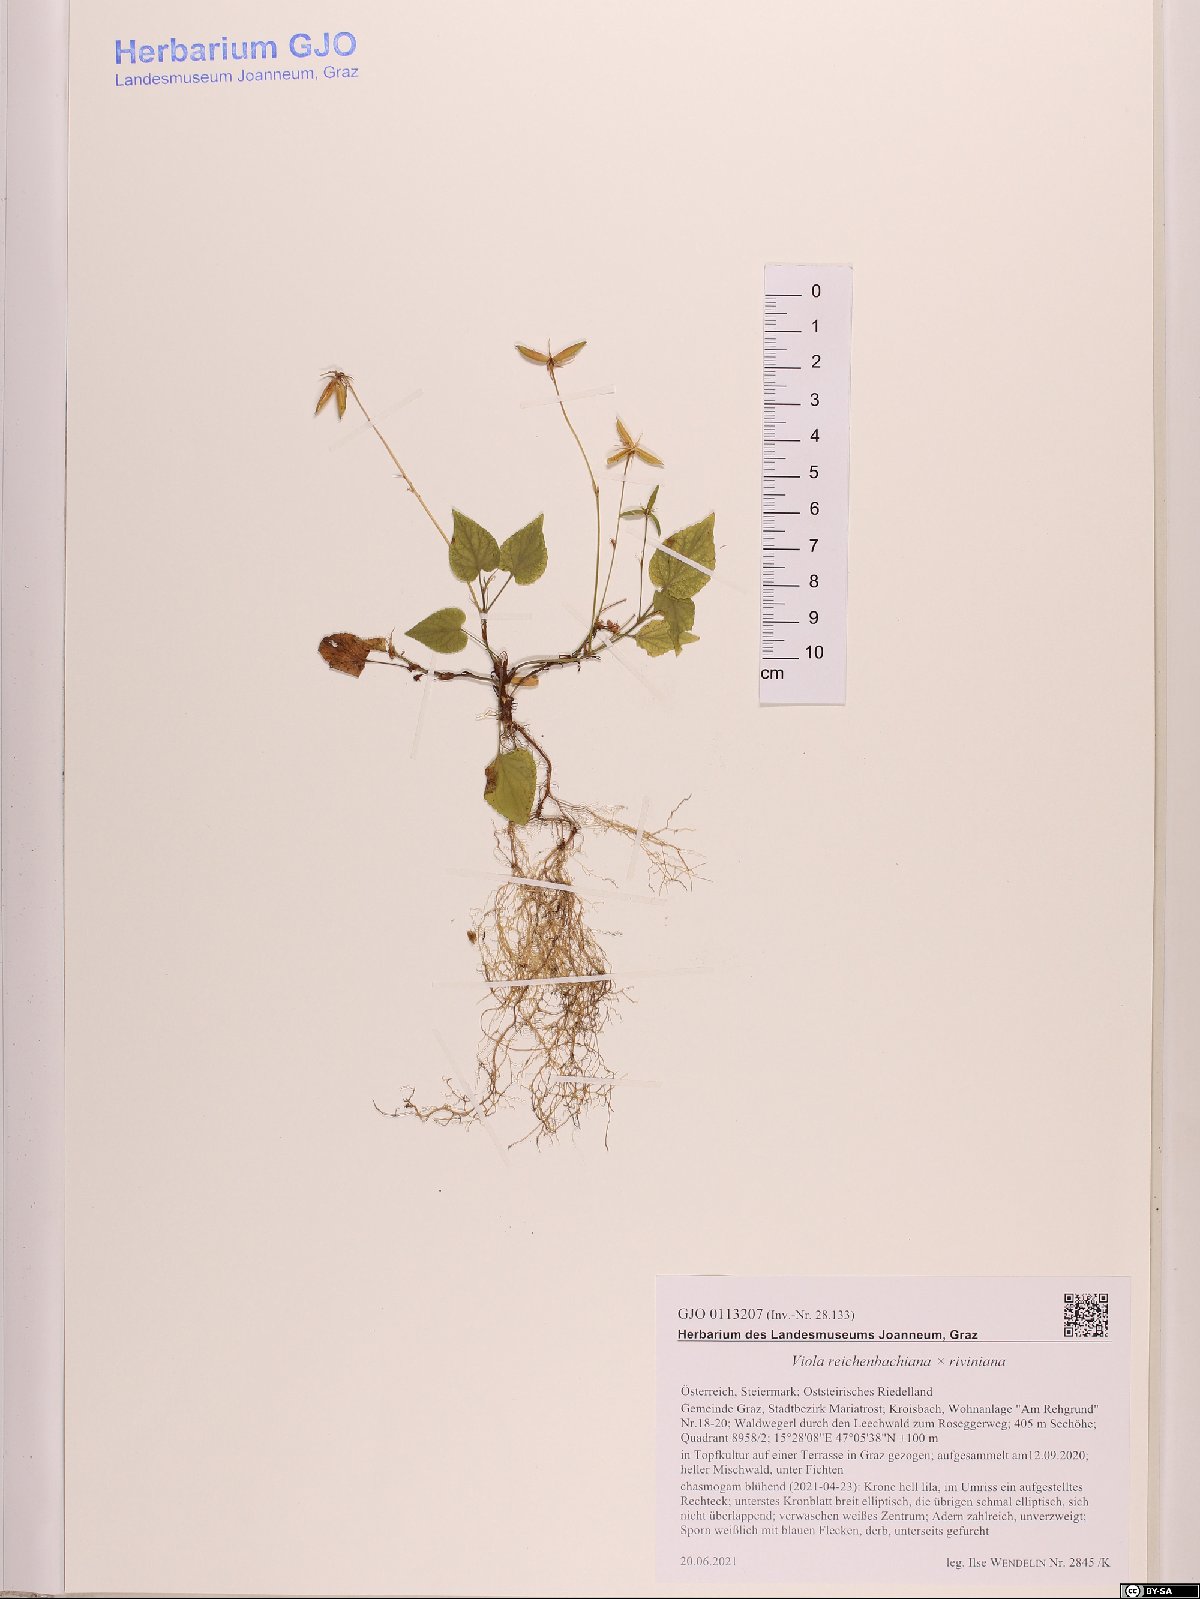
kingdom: Plantae
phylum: Tracheophyta
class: Magnoliopsida
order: Malpighiales
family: Violaceae
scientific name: Violaceae
